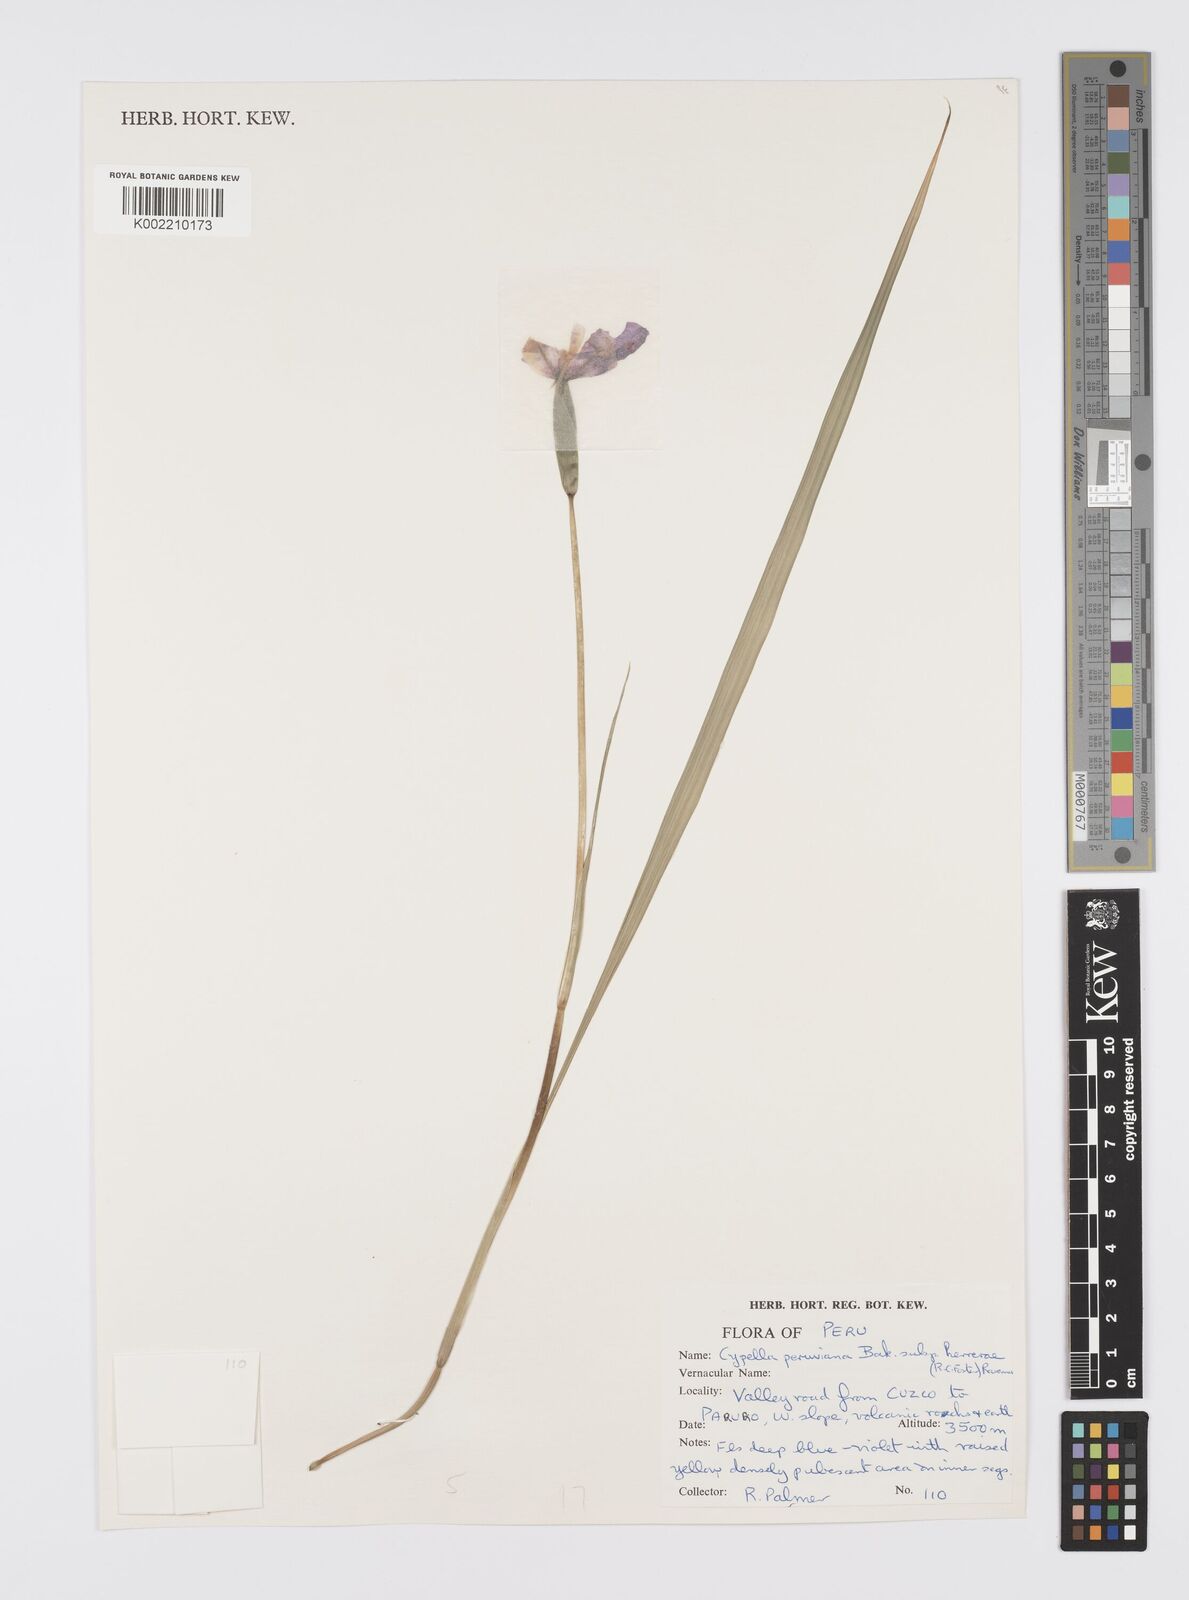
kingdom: Plantae
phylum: Tracheophyta
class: Liliopsida
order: Asparagales
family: Iridaceae
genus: Hesperoxiphion
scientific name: Hesperoxiphion herrerae
